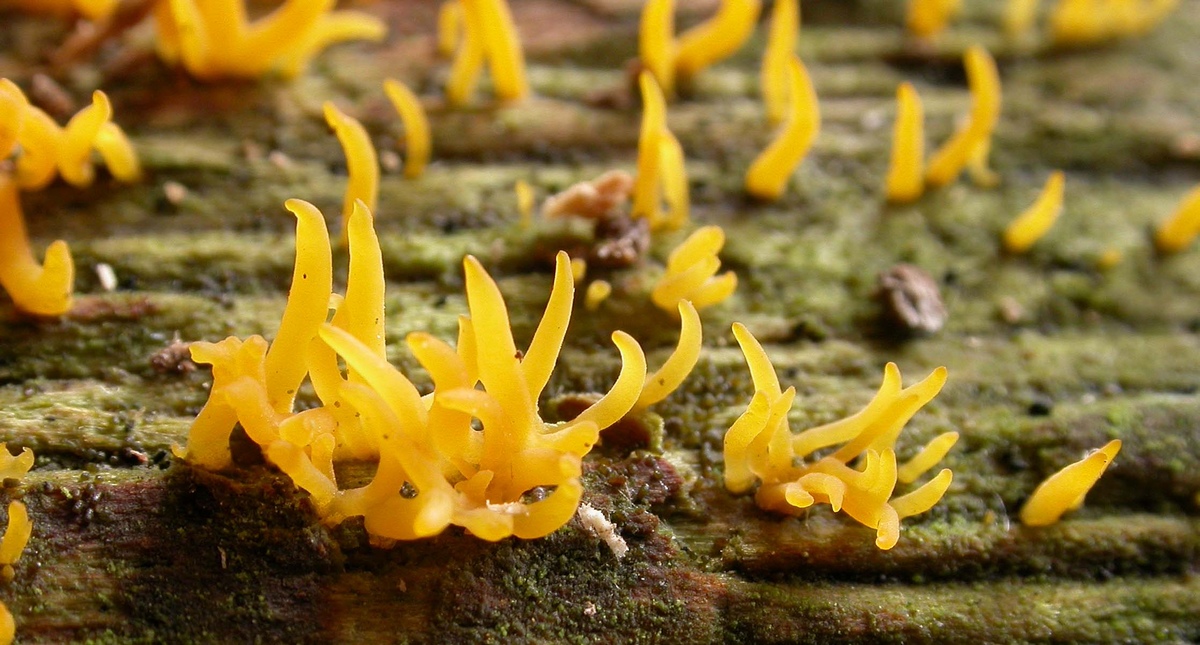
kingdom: Fungi
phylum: Basidiomycota
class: Dacrymycetes
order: Dacrymycetales
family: Dacrymycetaceae
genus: Calocera
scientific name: Calocera cornea
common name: liden guldgaffel
